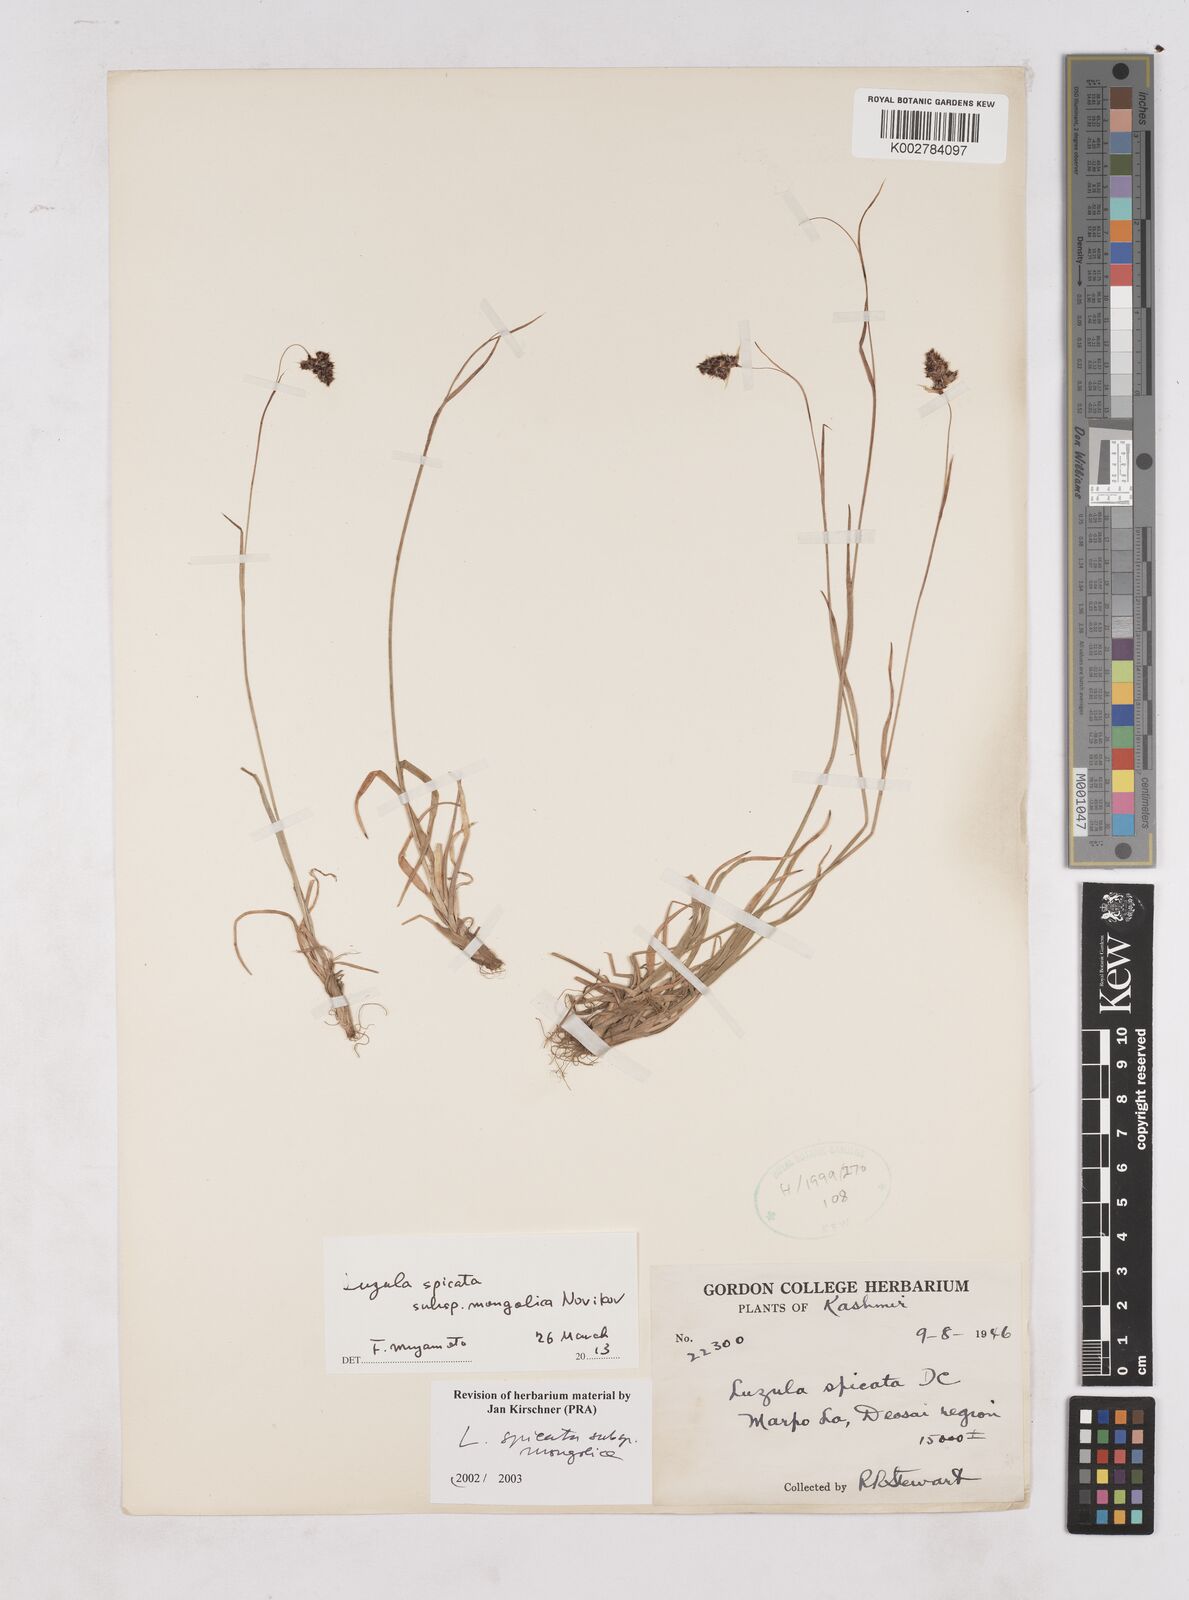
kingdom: Plantae
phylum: Tracheophyta
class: Liliopsida
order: Poales
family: Juncaceae
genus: Luzula
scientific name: Luzula spicata
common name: Spiked wood-rush
